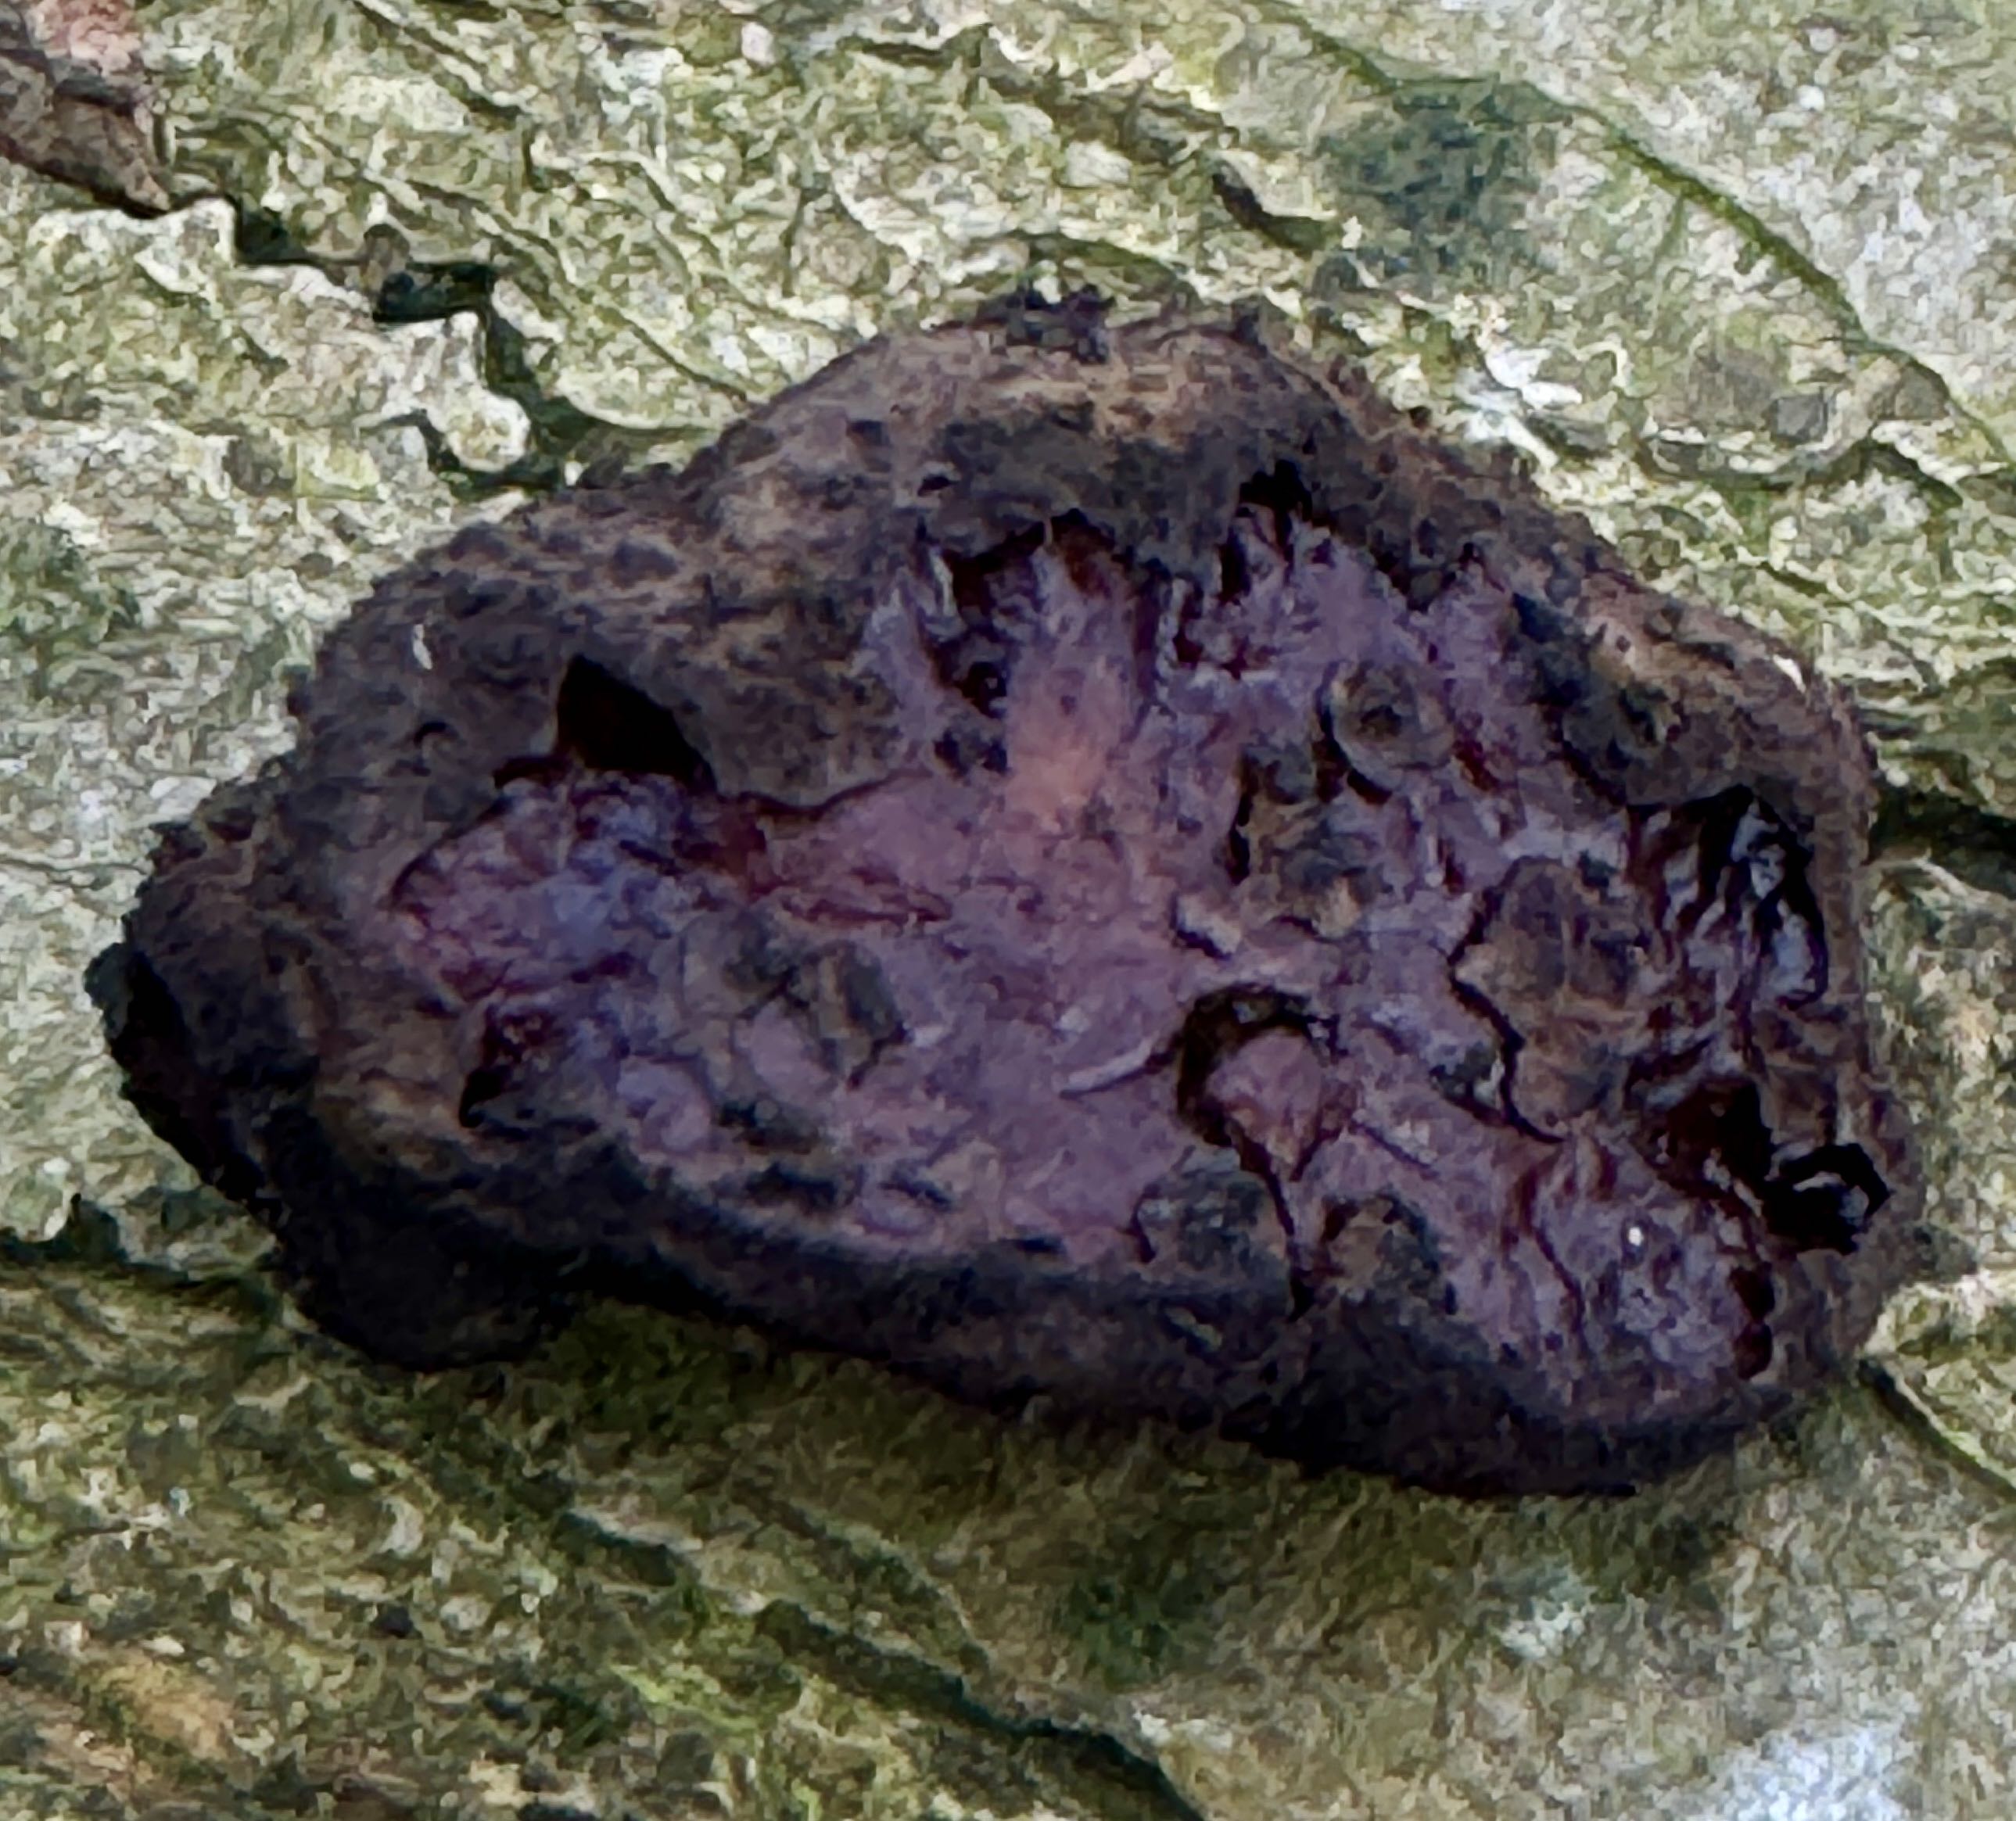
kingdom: Fungi
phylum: Ascomycota
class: Leotiomycetes
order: Phacidiales
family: Phacidiaceae
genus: Bulgaria
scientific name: Bulgaria inquinans
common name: afsmittende topsvamp
